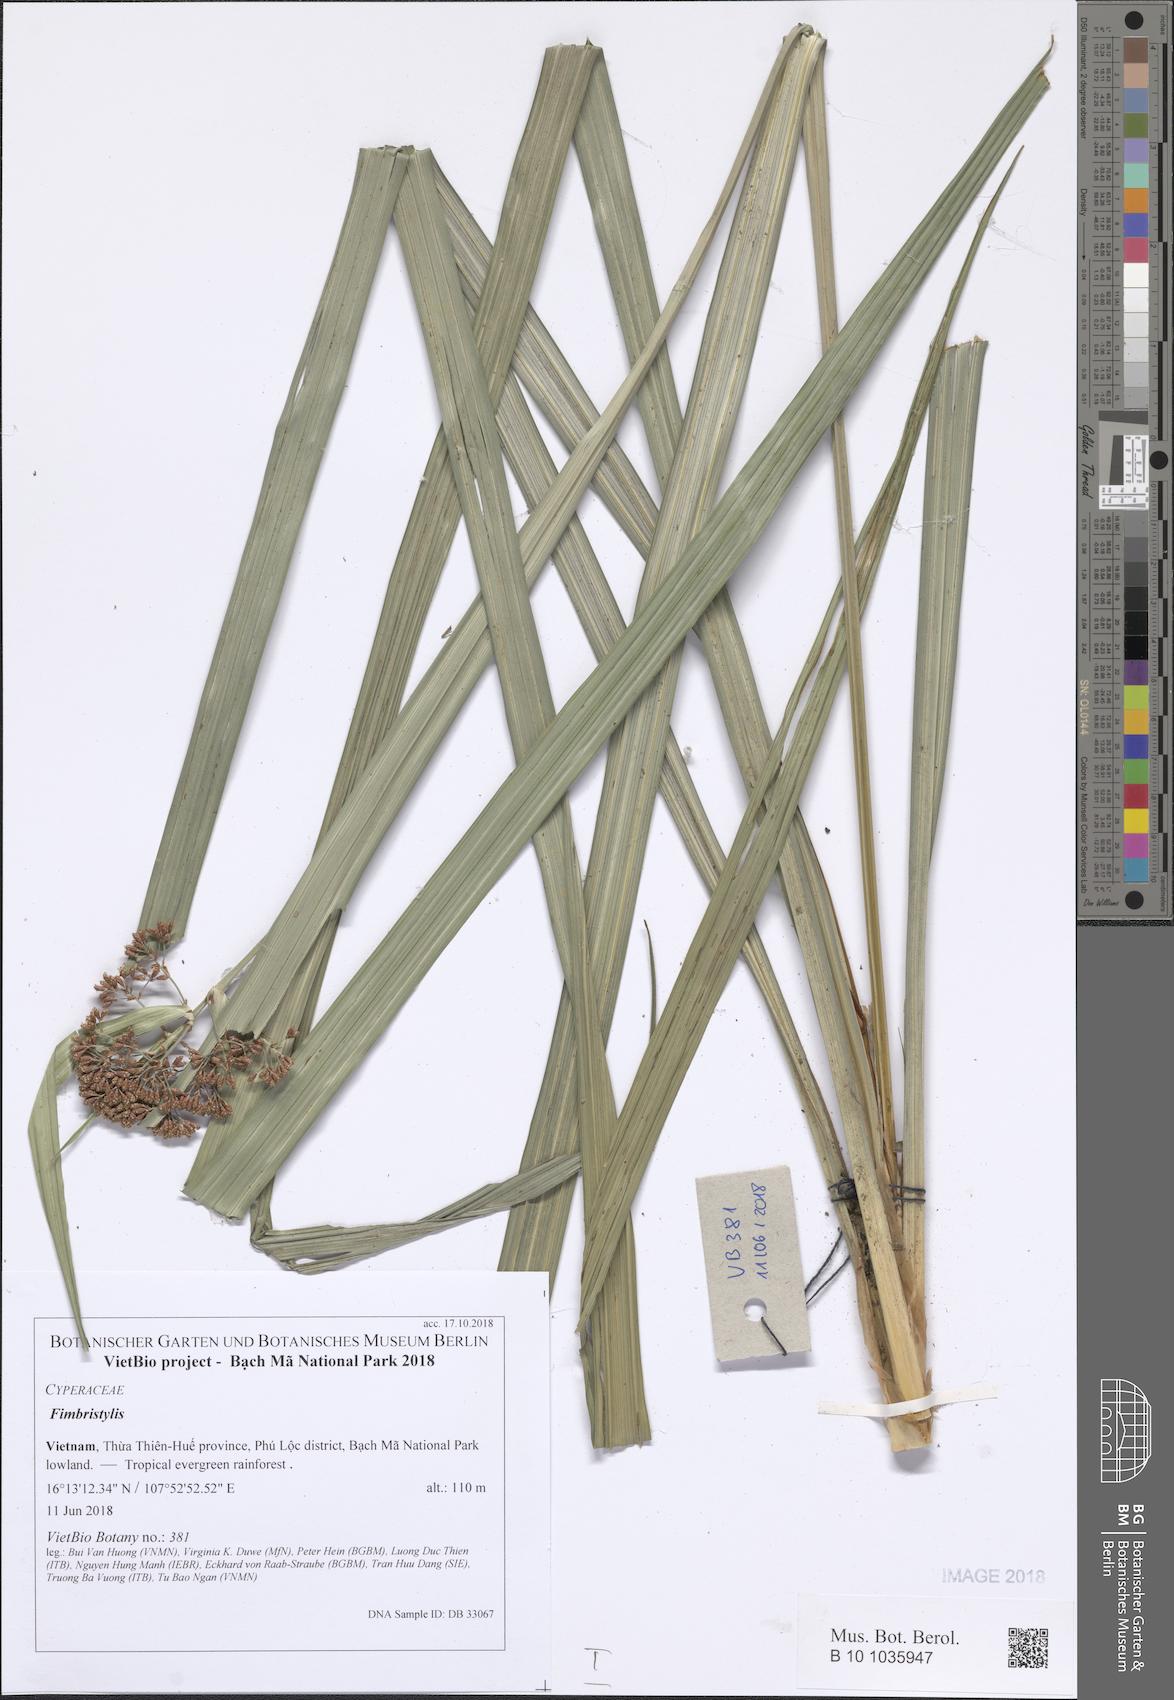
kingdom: Plantae
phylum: Tracheophyta
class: Liliopsida
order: Poales
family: Cyperaceae
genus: Fimbristylis
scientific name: Fimbristylis
